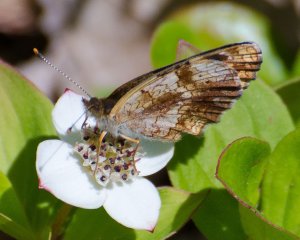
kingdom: Animalia
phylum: Arthropoda
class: Insecta
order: Lepidoptera
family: Nymphalidae
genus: Phyciodes
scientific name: Phyciodes tharos
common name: Pearl Crescent
